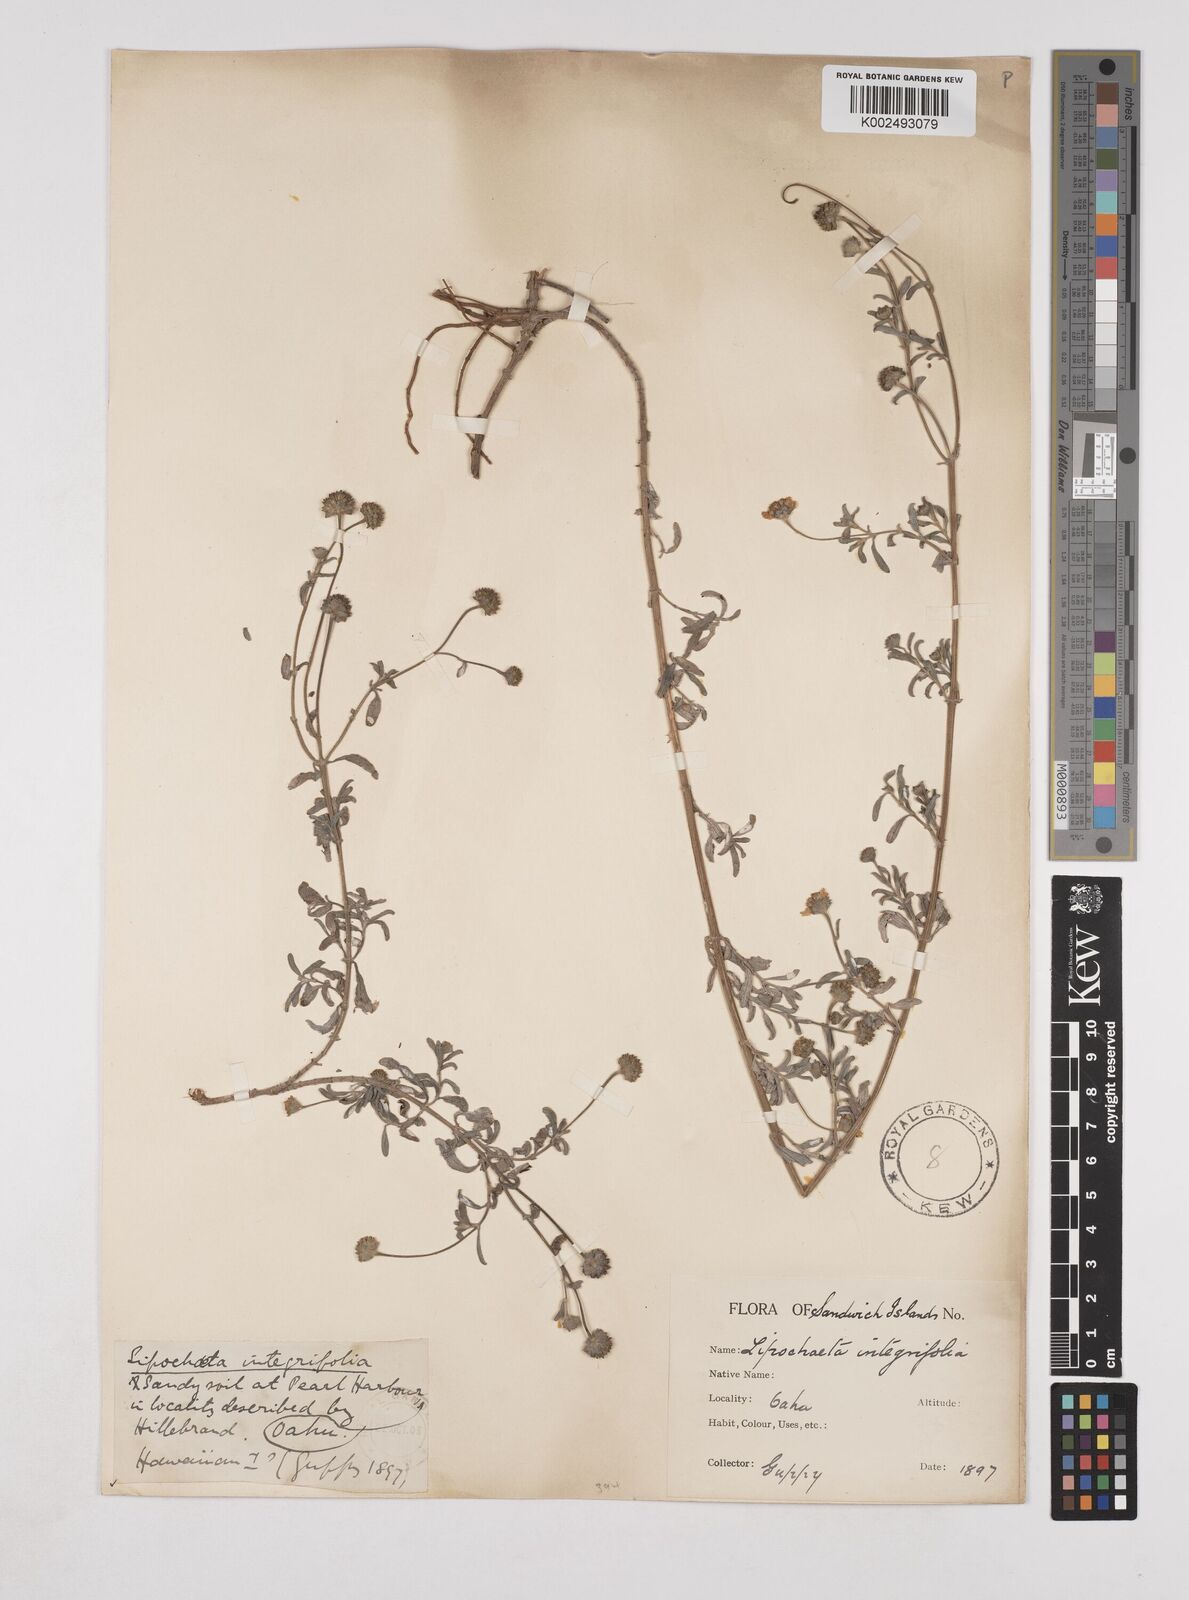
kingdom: Plantae
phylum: Tracheophyta
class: Magnoliopsida
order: Asterales
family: Asteraceae
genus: Lipochaeta
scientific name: Lipochaeta integrifolia
